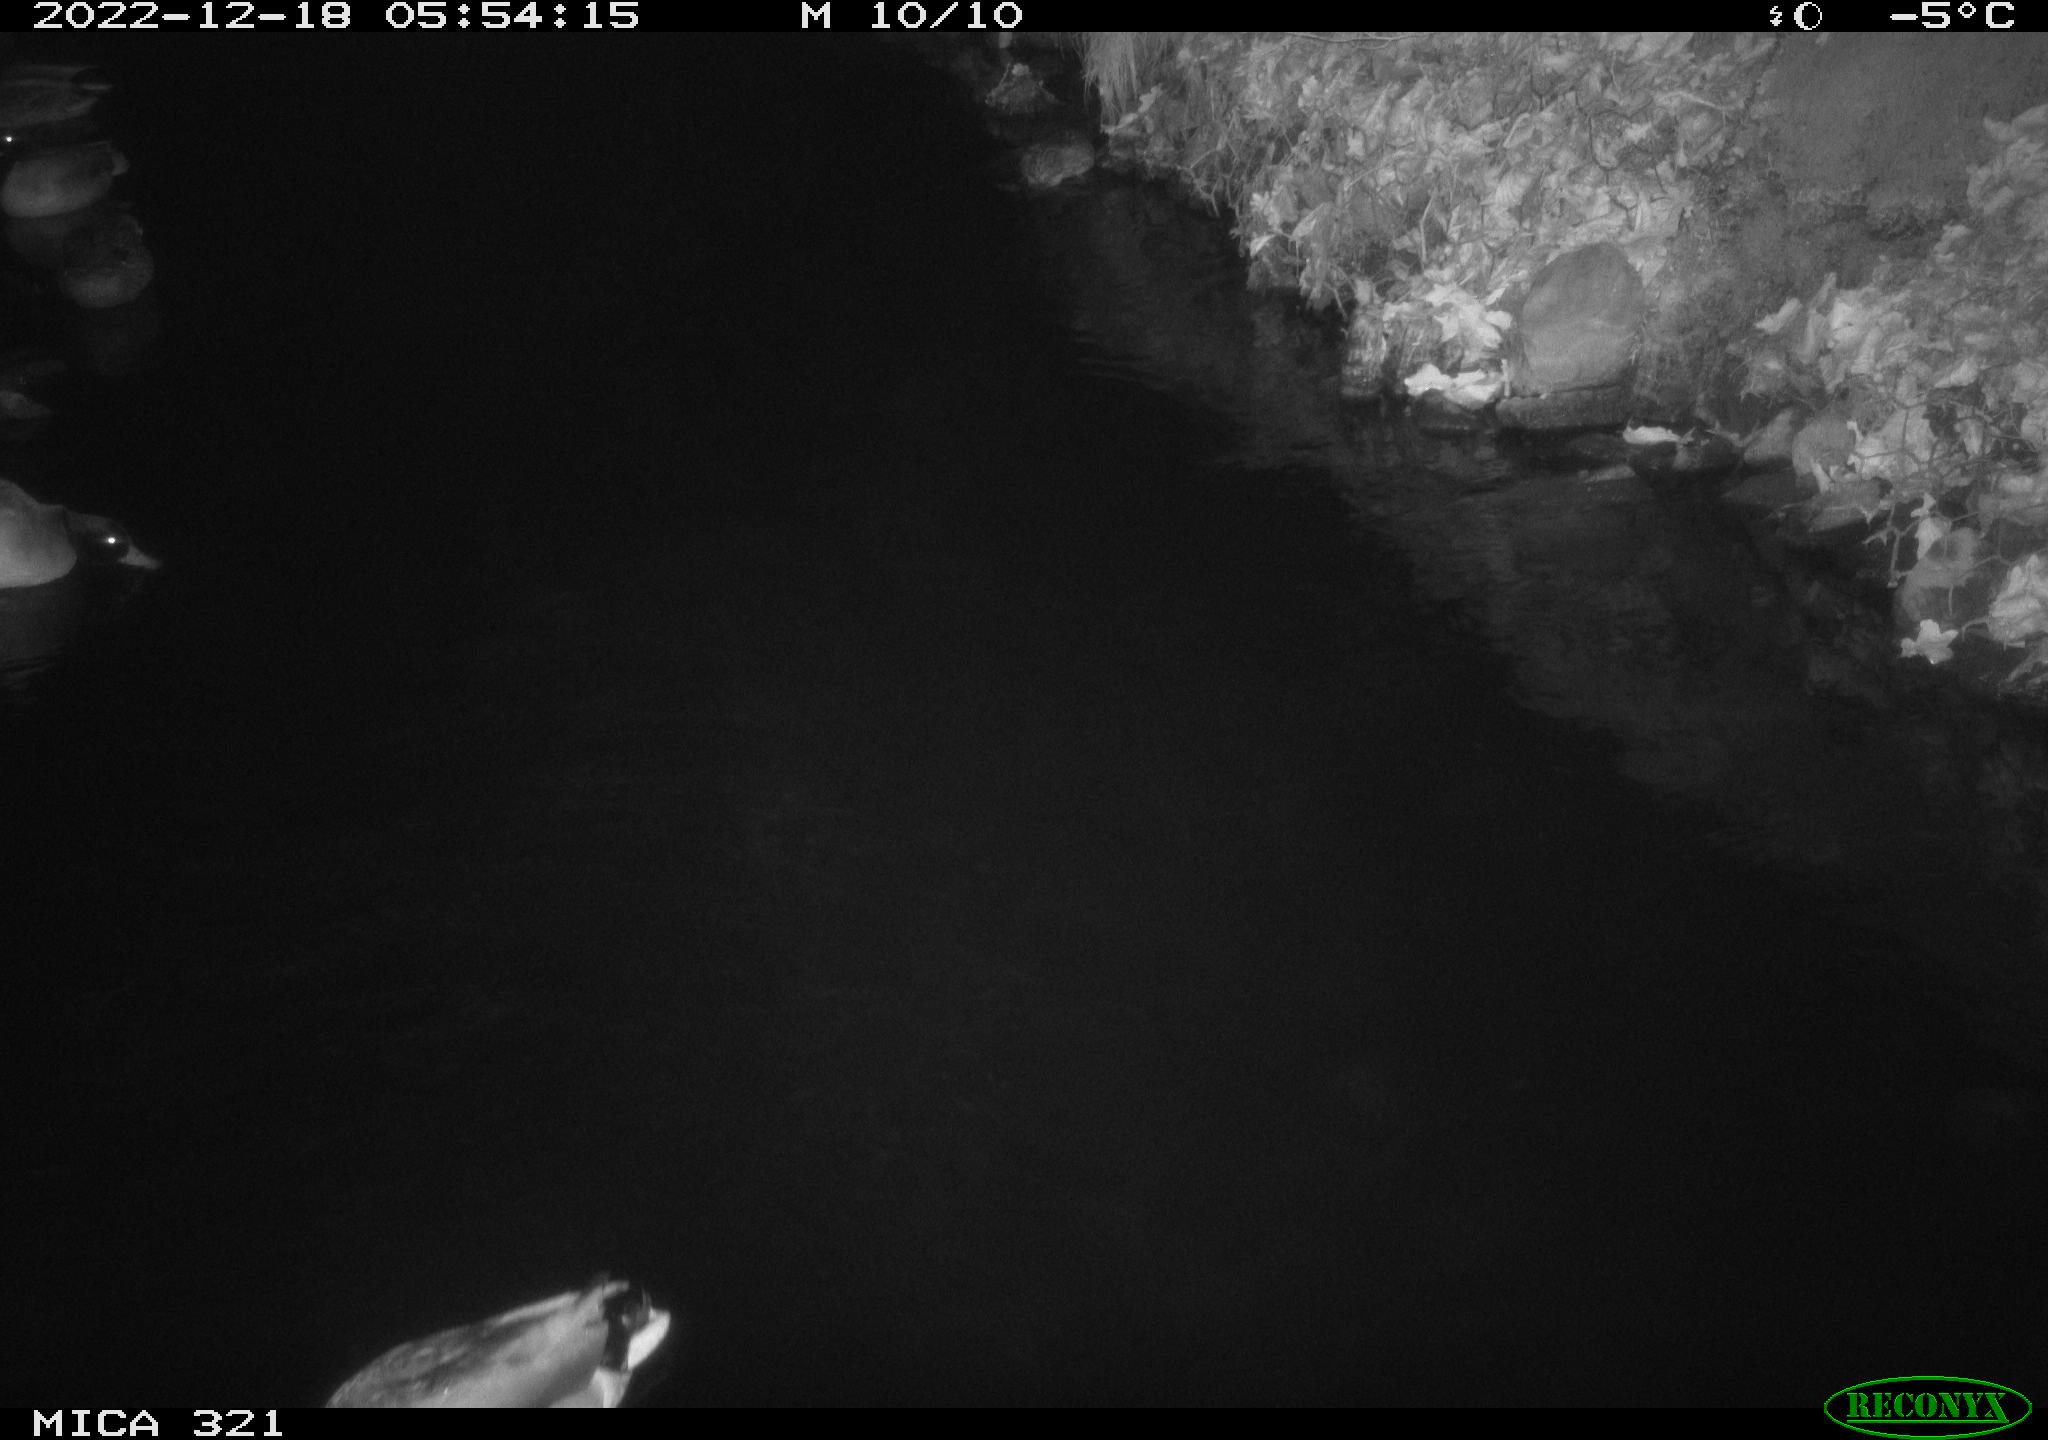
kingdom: Animalia
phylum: Chordata
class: Aves
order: Anseriformes
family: Anatidae
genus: Anas
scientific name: Anas
